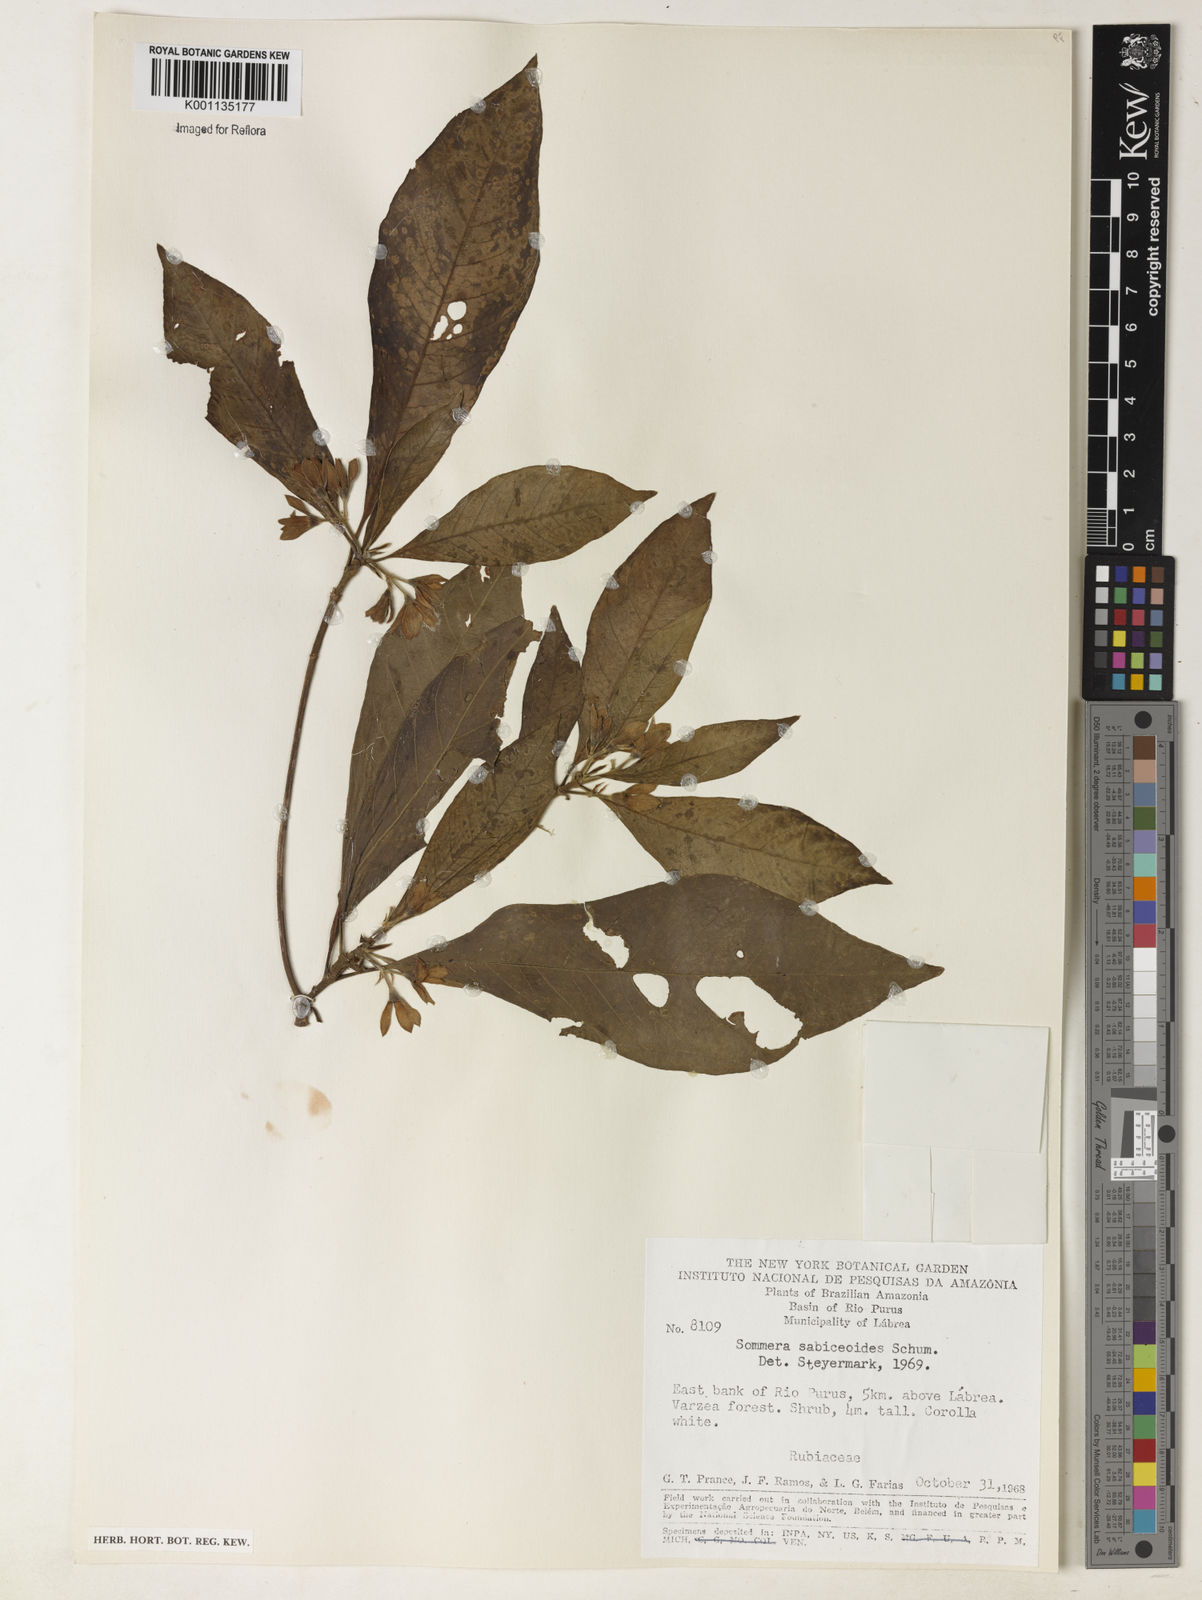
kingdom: Plantae
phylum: Tracheophyta
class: Magnoliopsida
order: Gentianales
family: Rubiaceae
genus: Sommera
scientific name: Sommera sabiceoides
